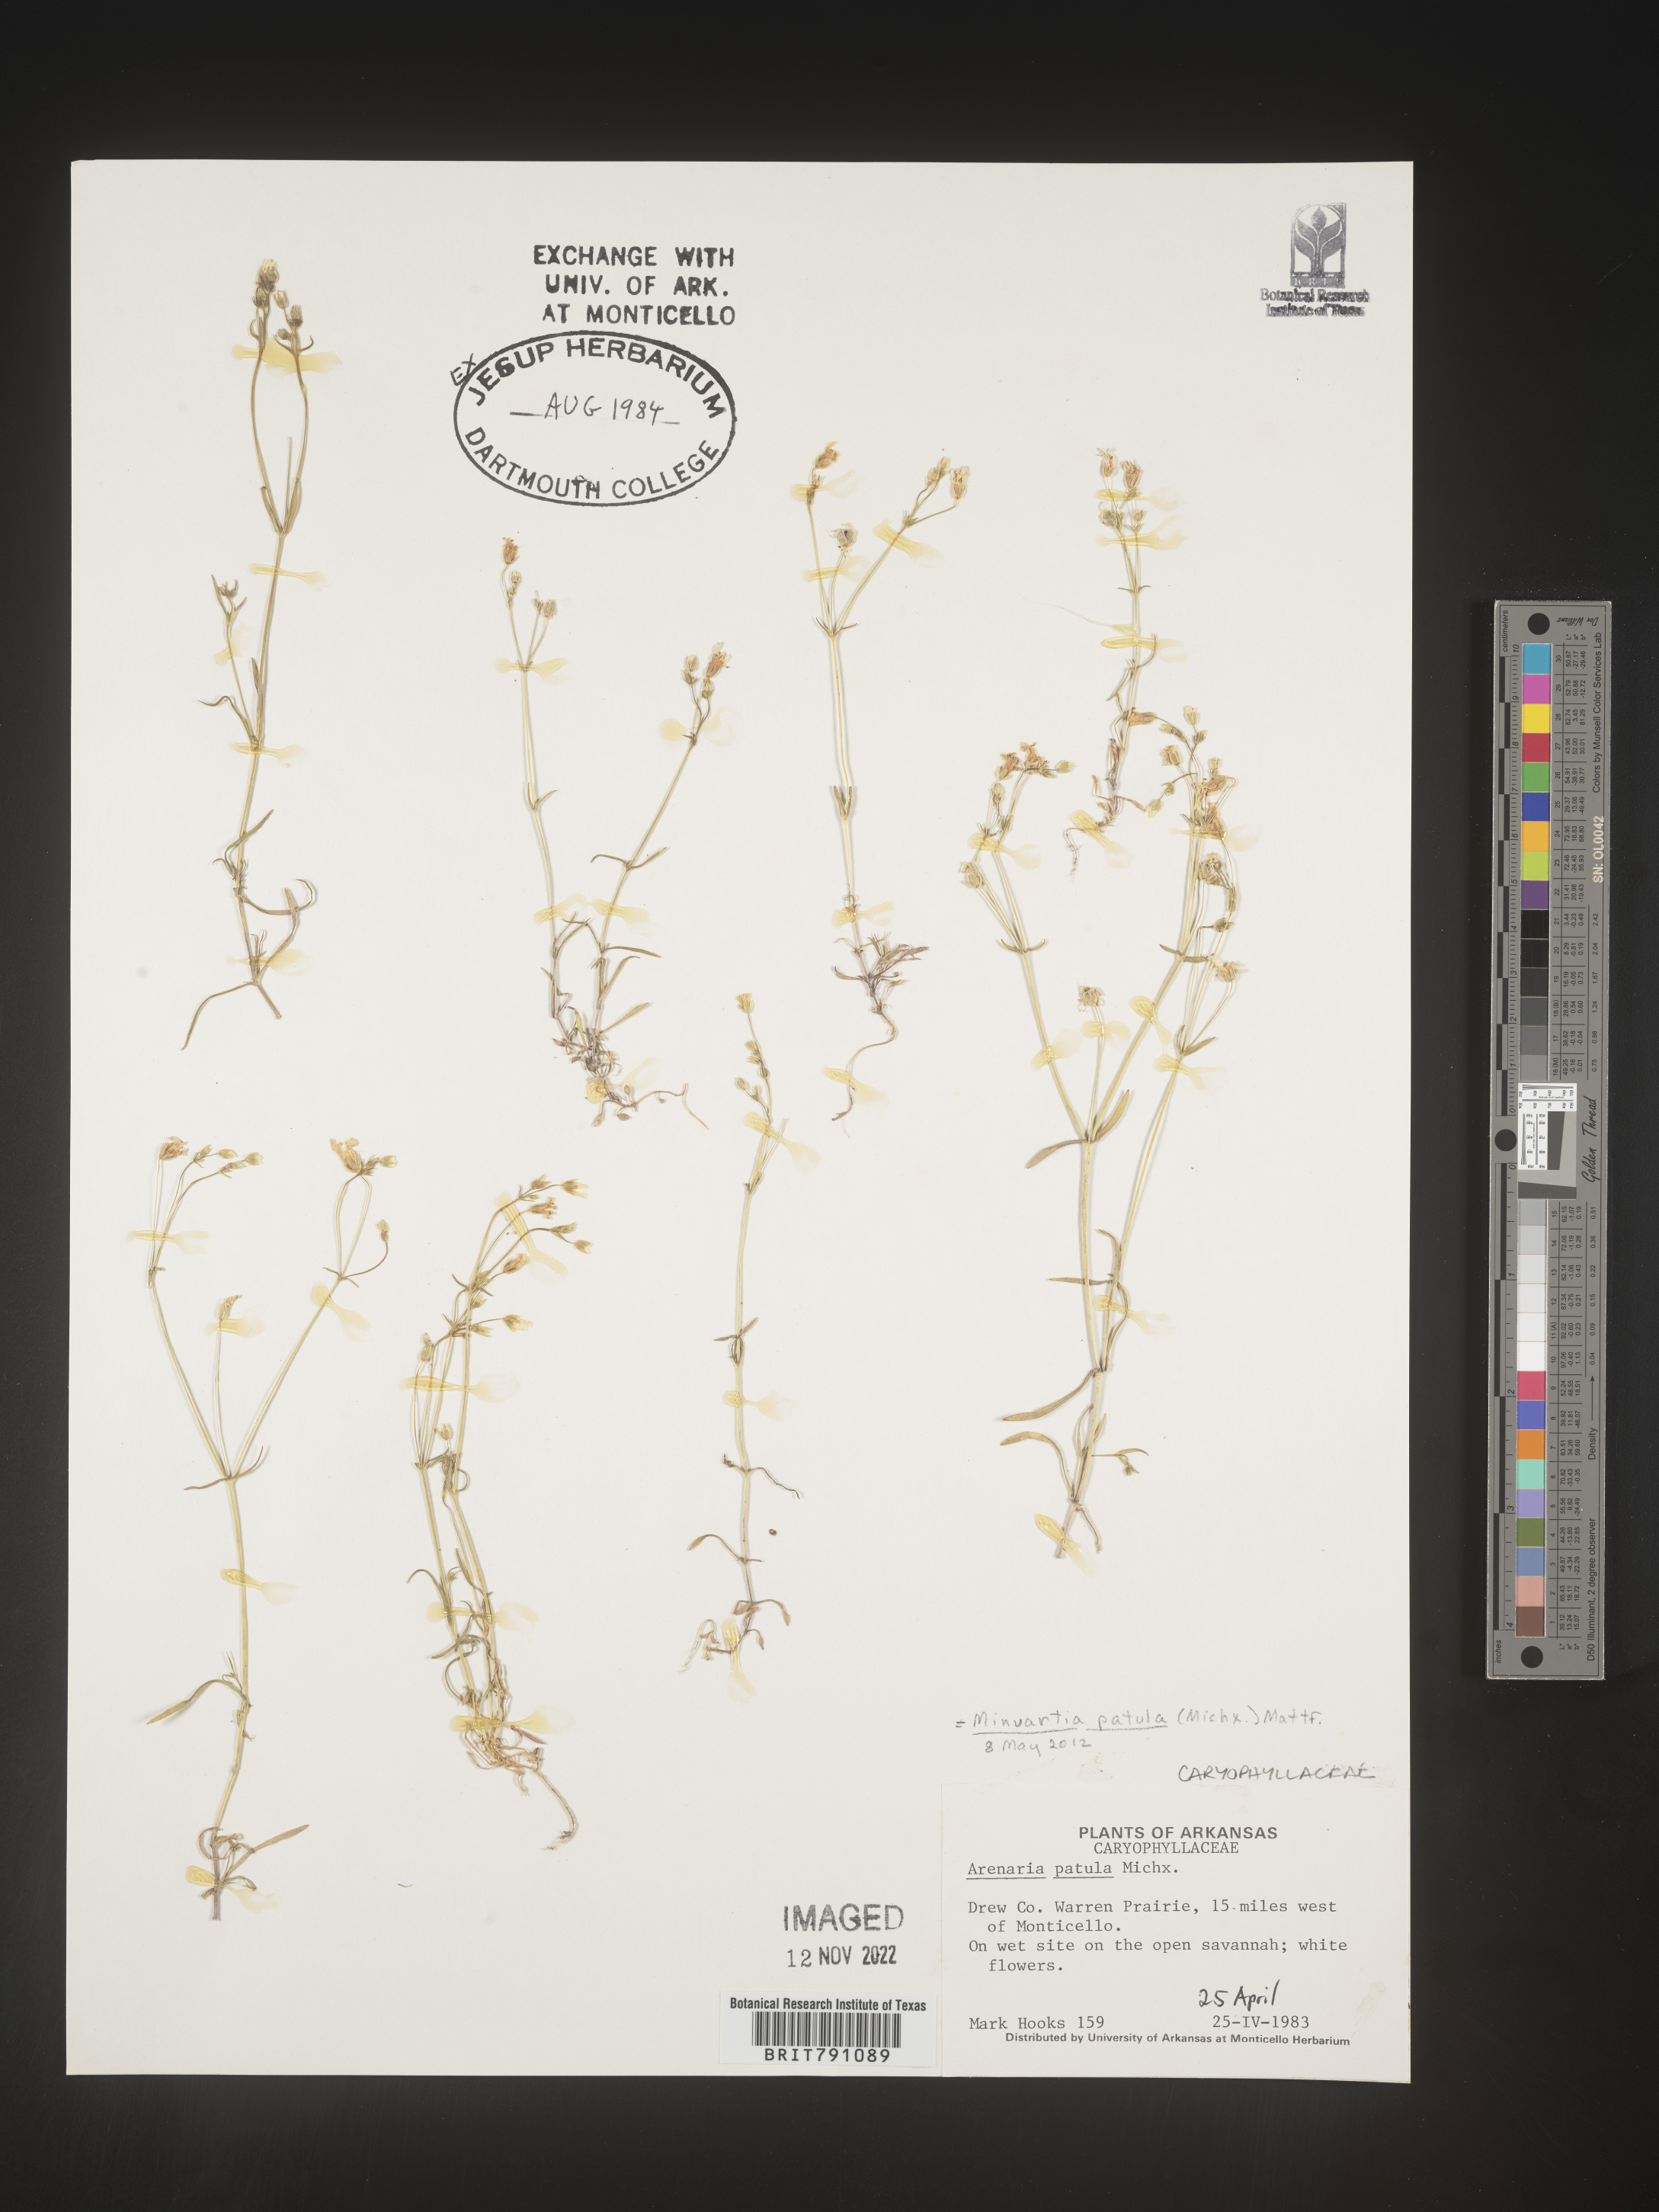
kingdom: Plantae
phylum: Tracheophyta
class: Magnoliopsida
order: Caryophyllales
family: Caryophyllaceae
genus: Mononeuria
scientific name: Mononeuria patula
